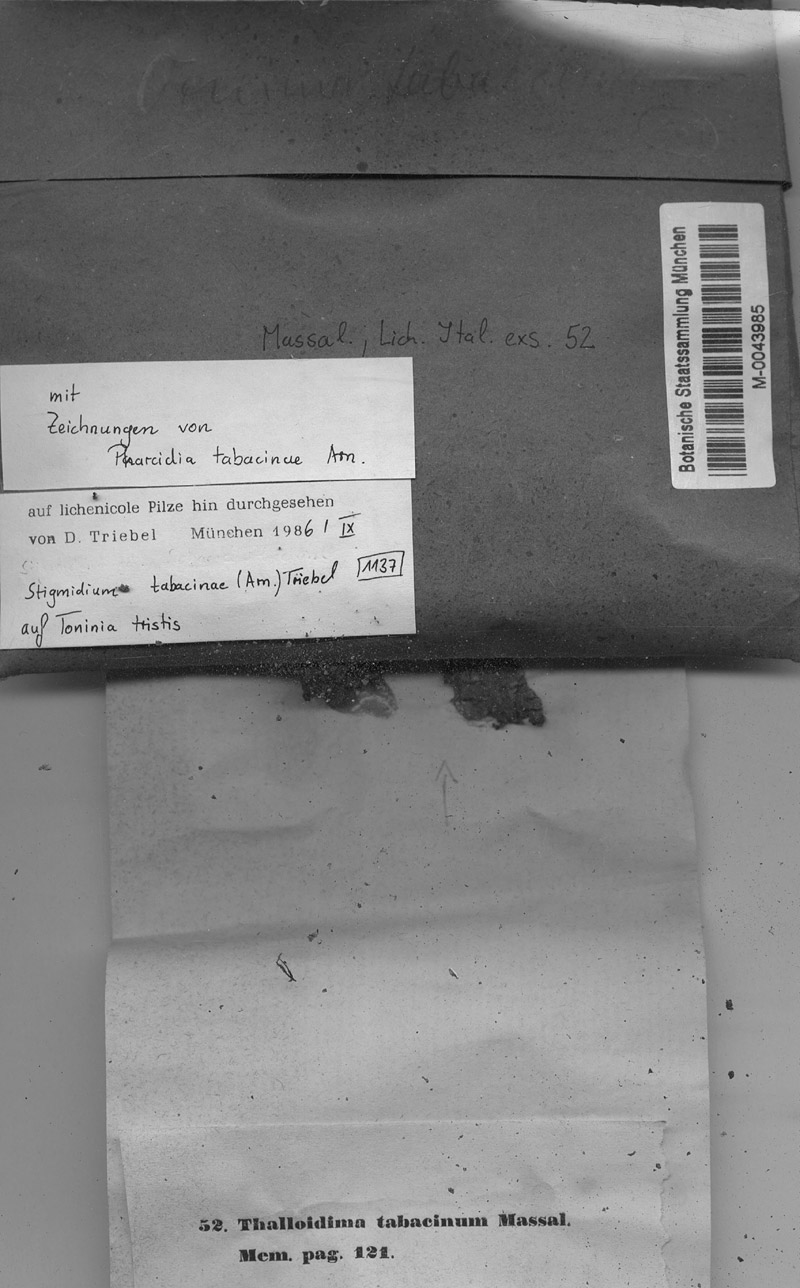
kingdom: Fungi
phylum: Ascomycota
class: Lecanoromycetes
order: Lecanorales
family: Ramalinaceae
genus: Toninia
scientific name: Toninia tristis
